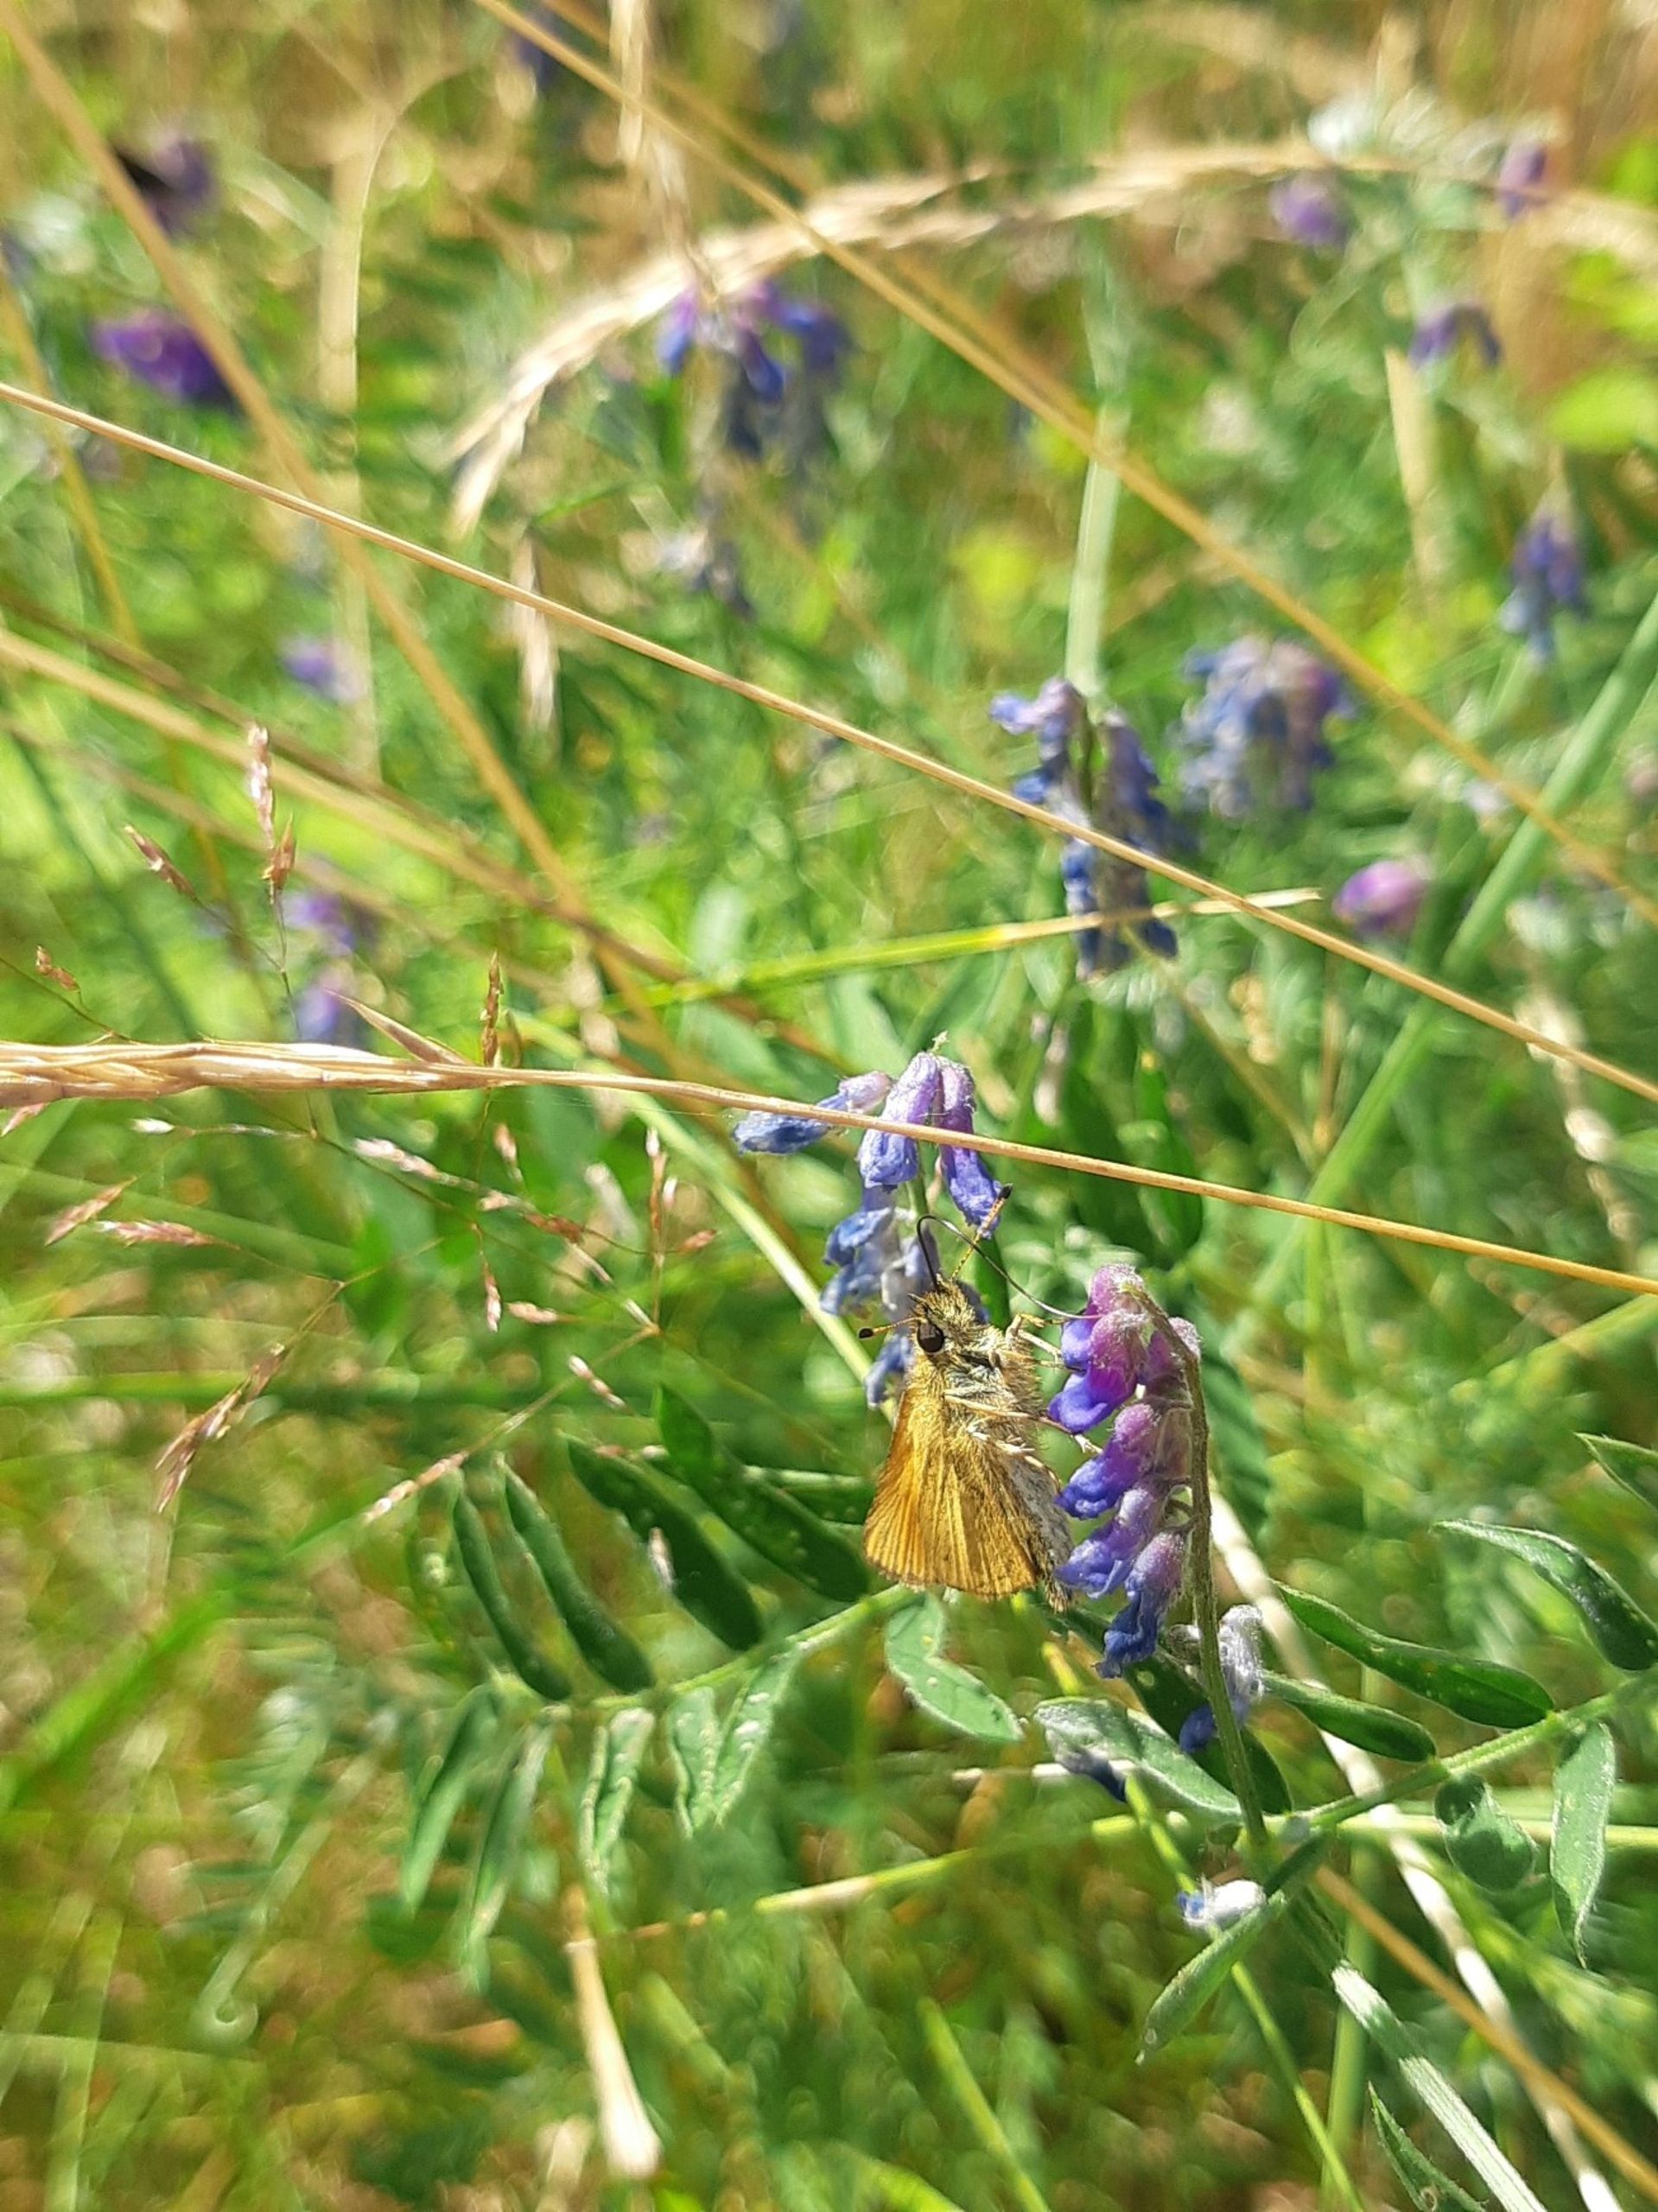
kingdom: Animalia
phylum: Arthropoda
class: Insecta
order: Lepidoptera
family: Hesperiidae
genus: Thymelicus
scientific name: Thymelicus lineola
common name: Stregbredpande
